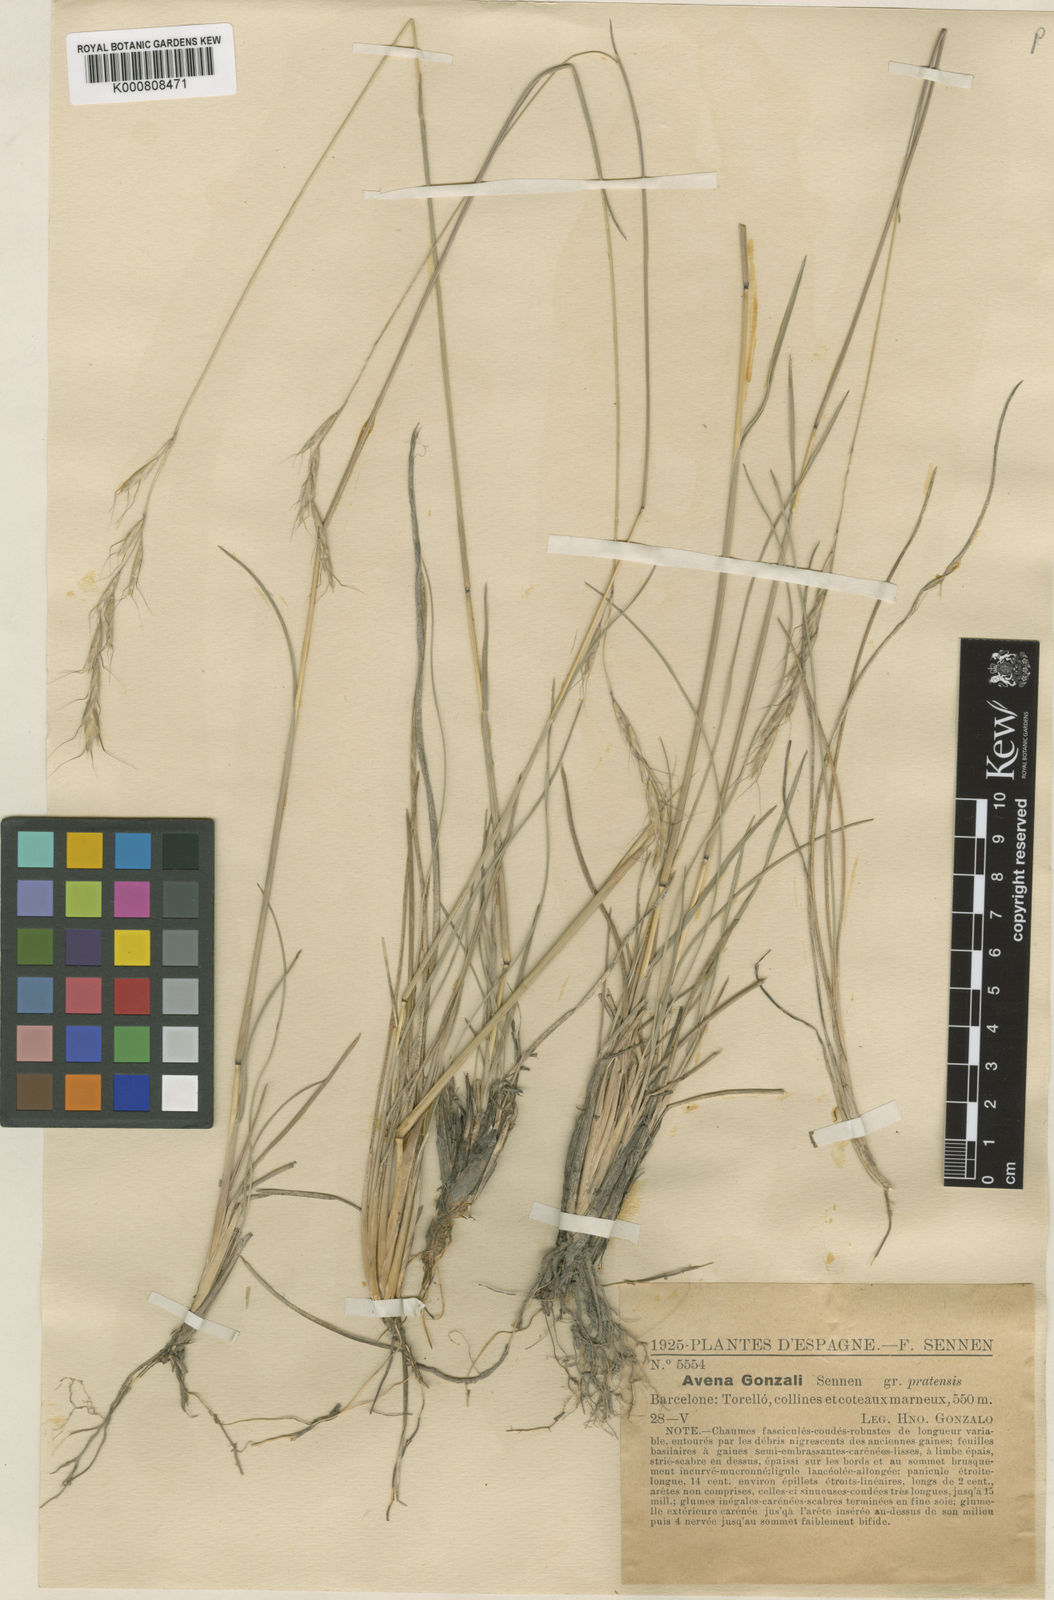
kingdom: Plantae
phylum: Tracheophyta
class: Liliopsida
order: Poales
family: Poaceae
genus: Helictochloa
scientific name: Helictochloa pratensis
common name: Meadow oat grass
